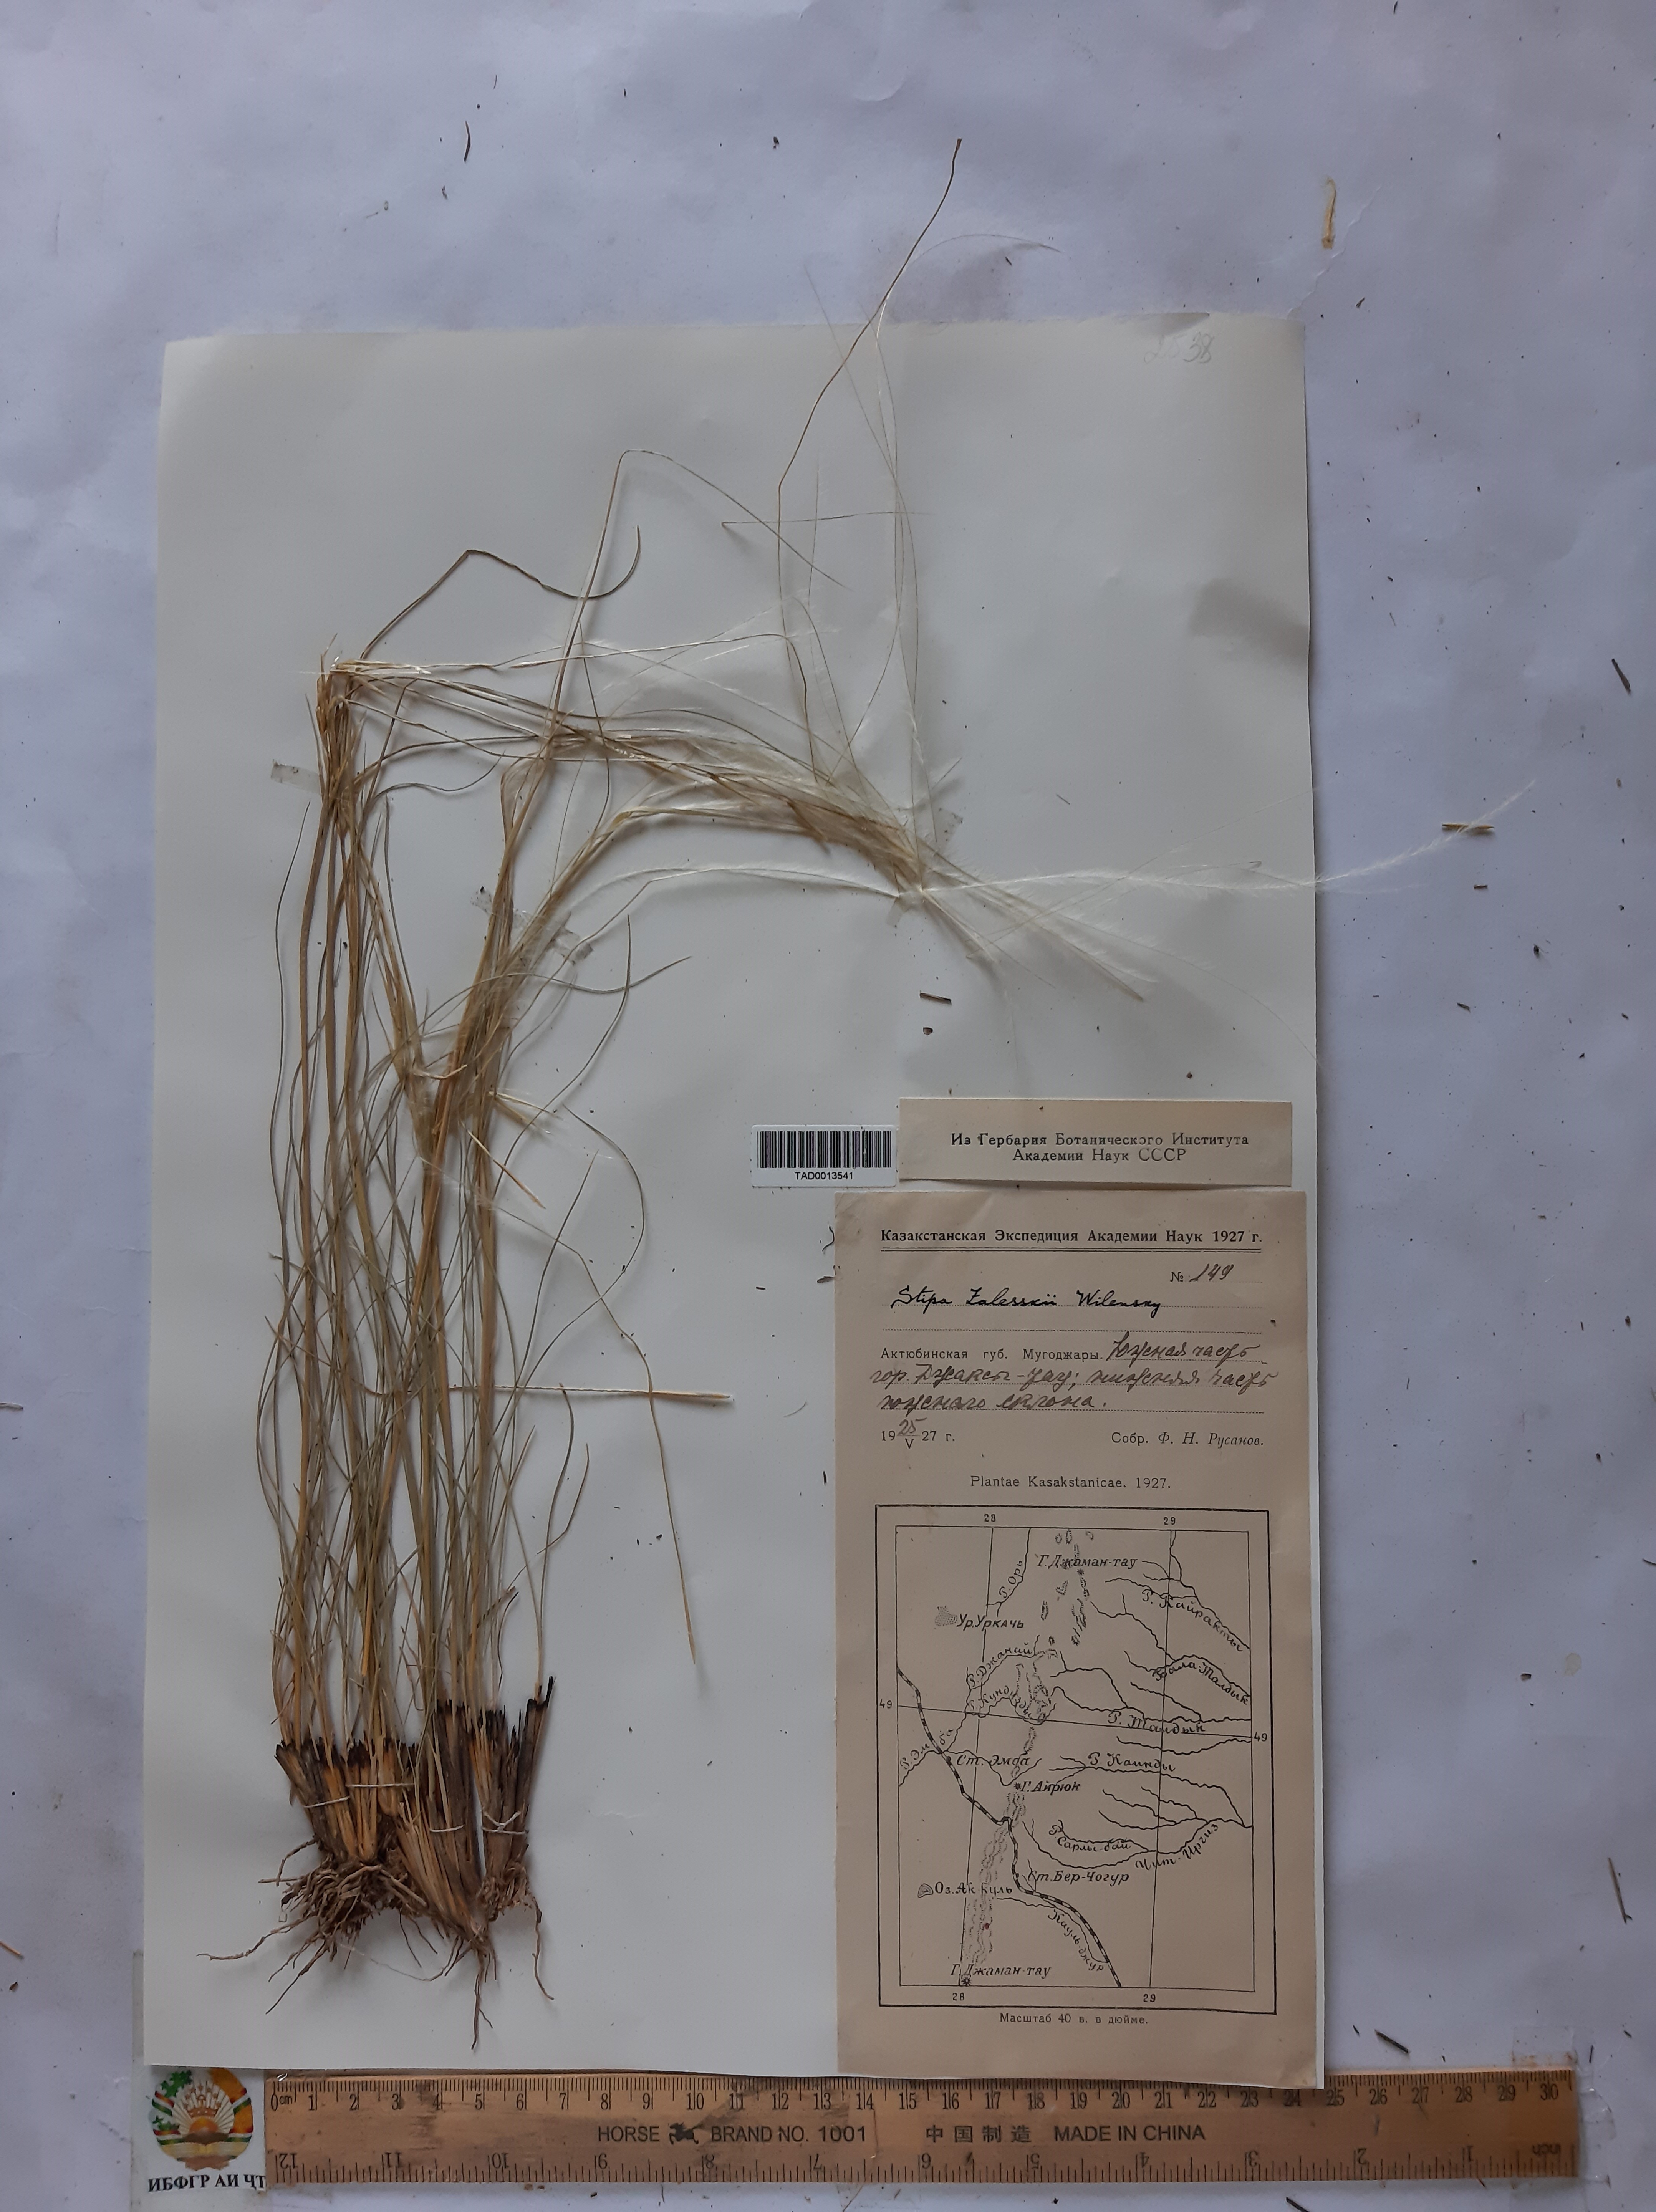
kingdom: Plantae
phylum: Tracheophyta
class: Liliopsida
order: Poales
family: Poaceae
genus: Stipa
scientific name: Stipa zalesskii
